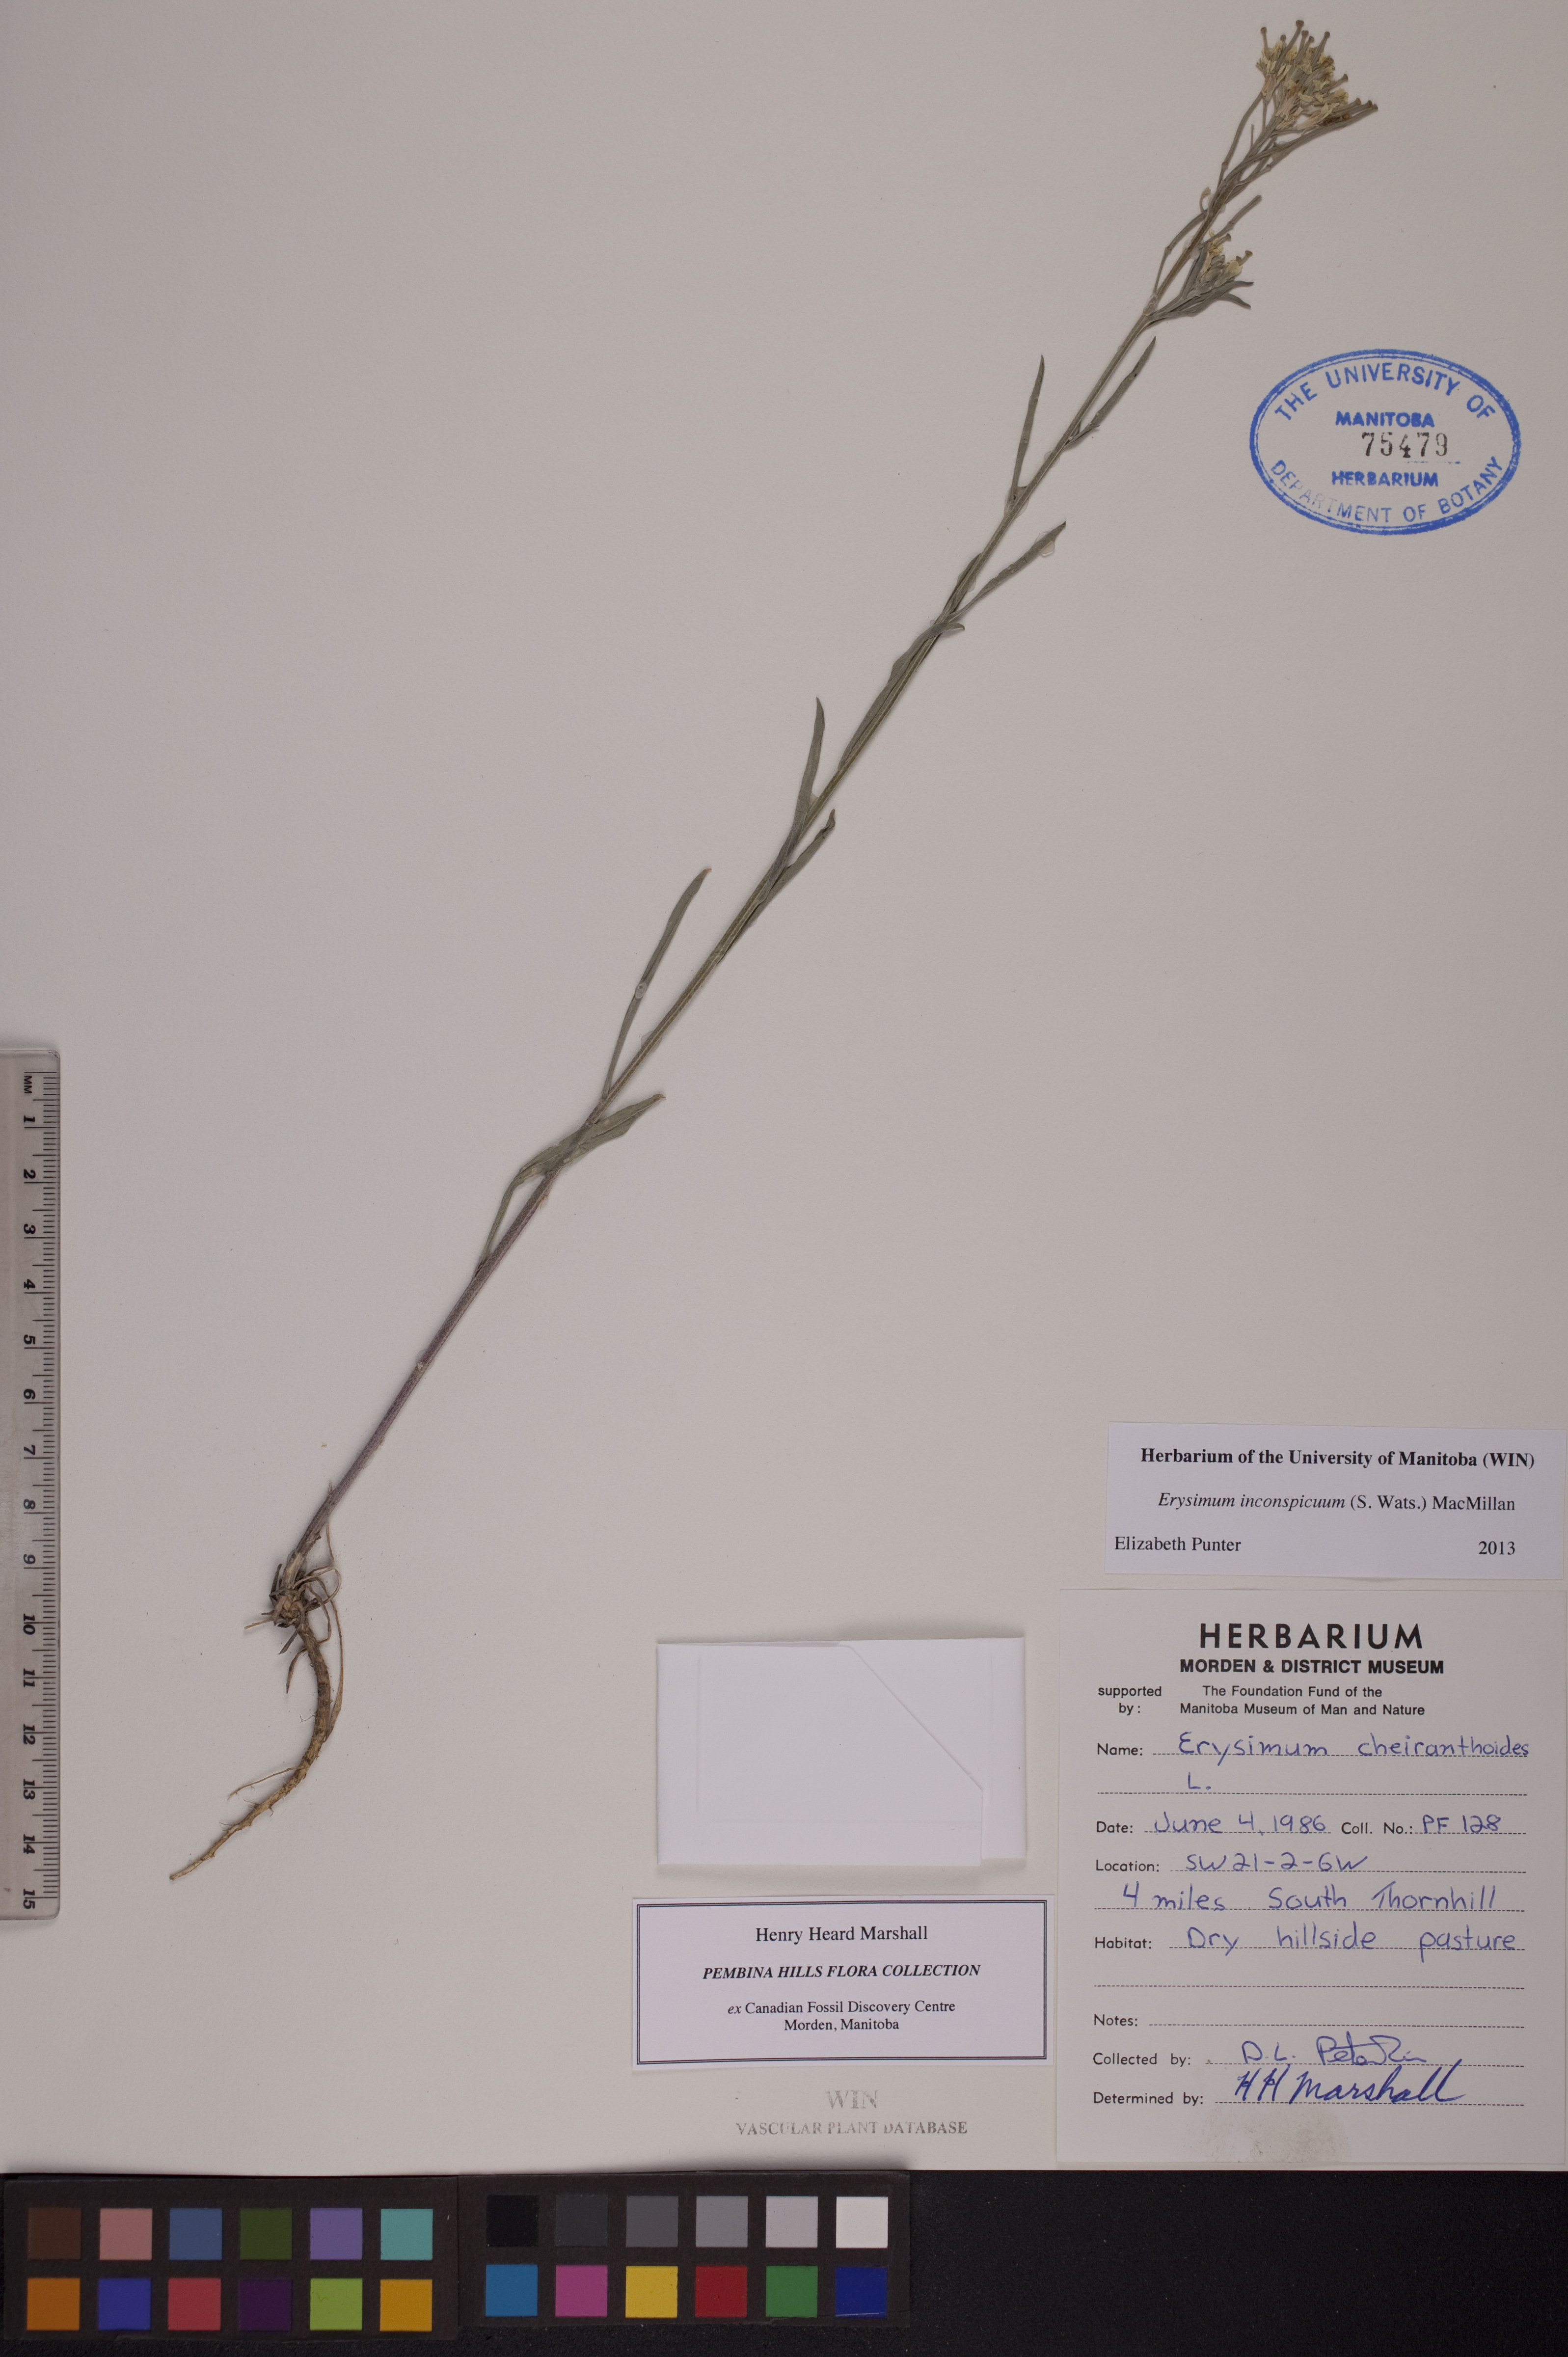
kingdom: Plantae
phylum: Tracheophyta
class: Magnoliopsida
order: Brassicales
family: Brassicaceae
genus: Erysimum
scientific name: Erysimum inconspicuum
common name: Shy wallflower
